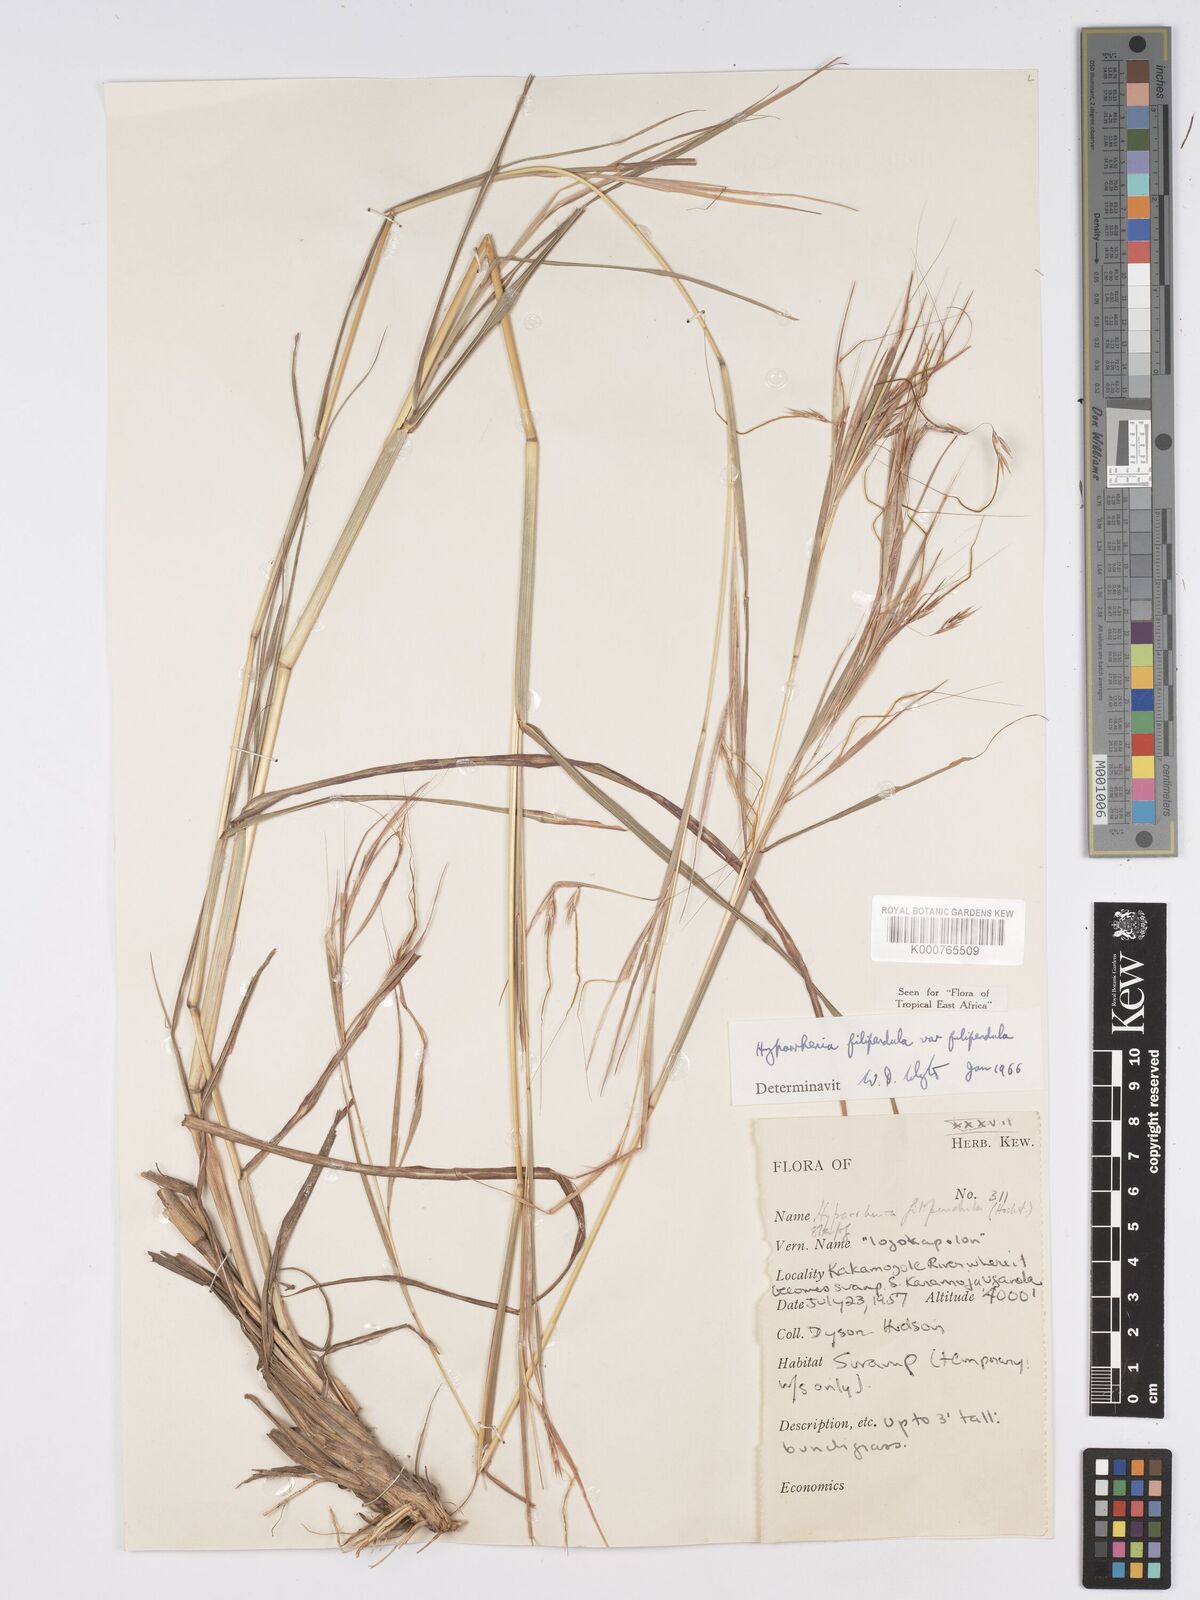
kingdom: Plantae
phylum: Tracheophyta
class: Liliopsida
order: Poales
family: Poaceae
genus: Hyparrhenia
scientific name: Hyparrhenia filipendula
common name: Tambookie grass
